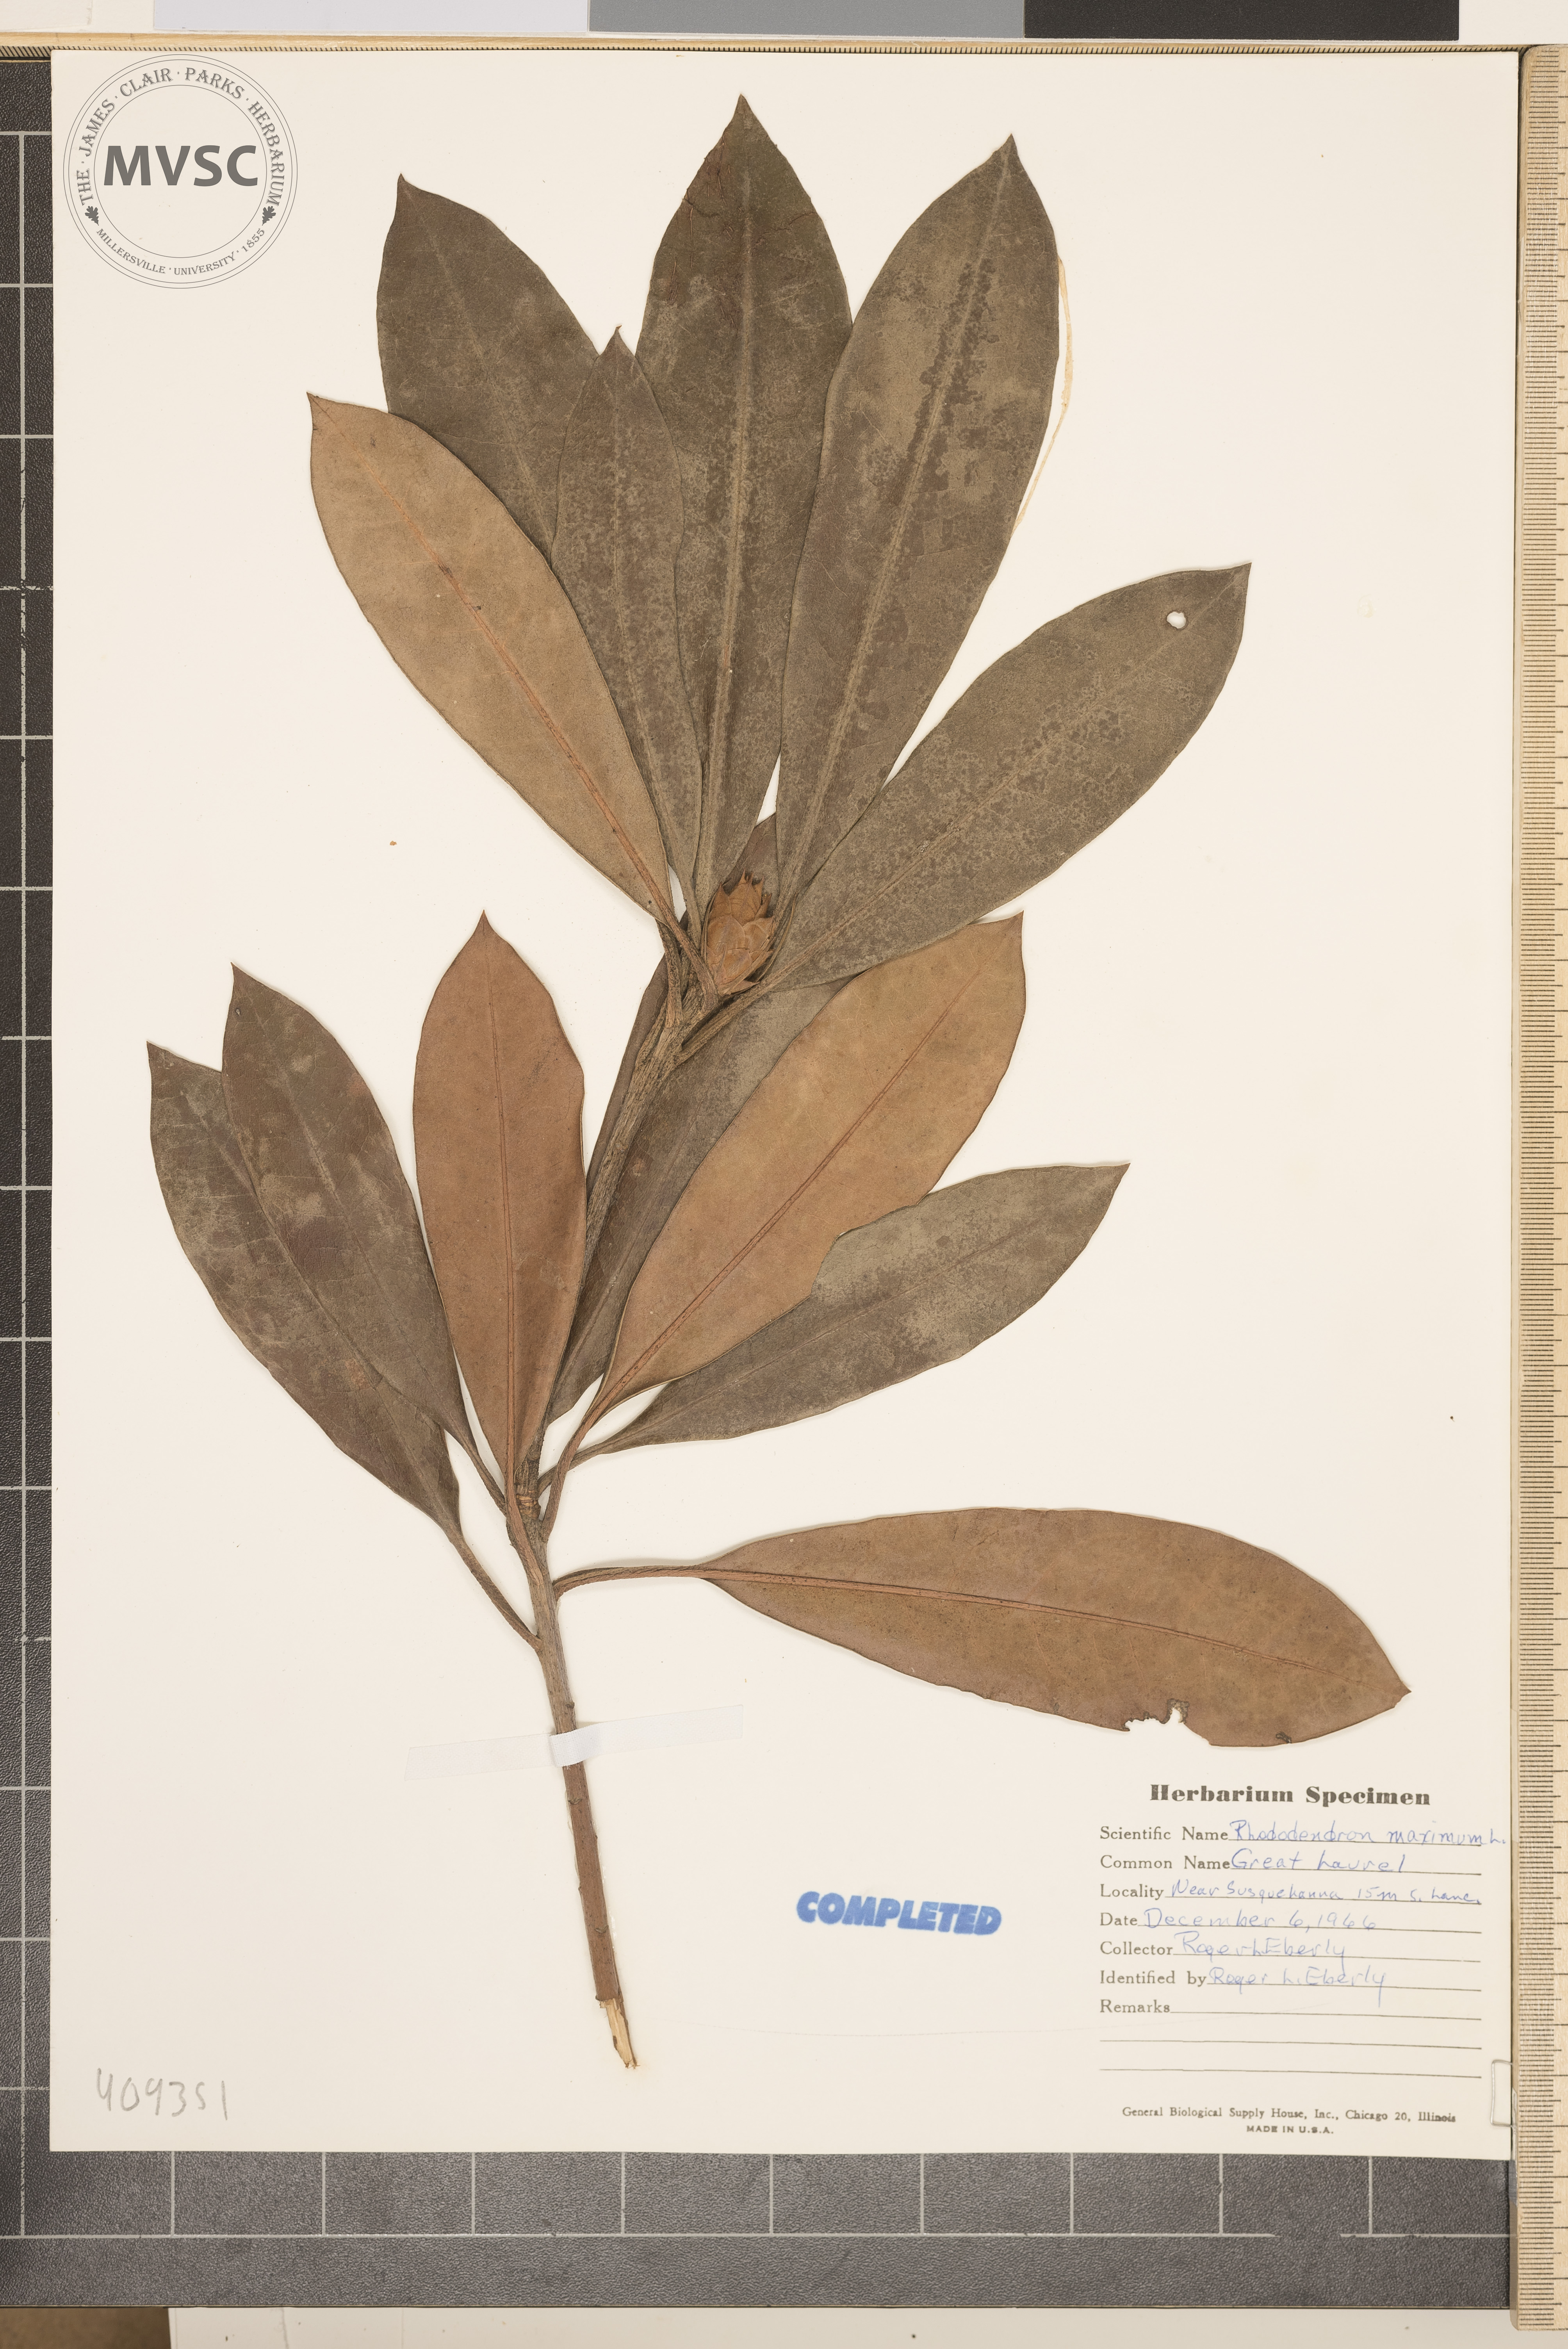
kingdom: Plantae
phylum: Tracheophyta
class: Magnoliopsida
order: Ericales
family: Ericaceae
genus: Rhododendron
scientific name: Rhododendron maximum
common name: Great rhododendron
